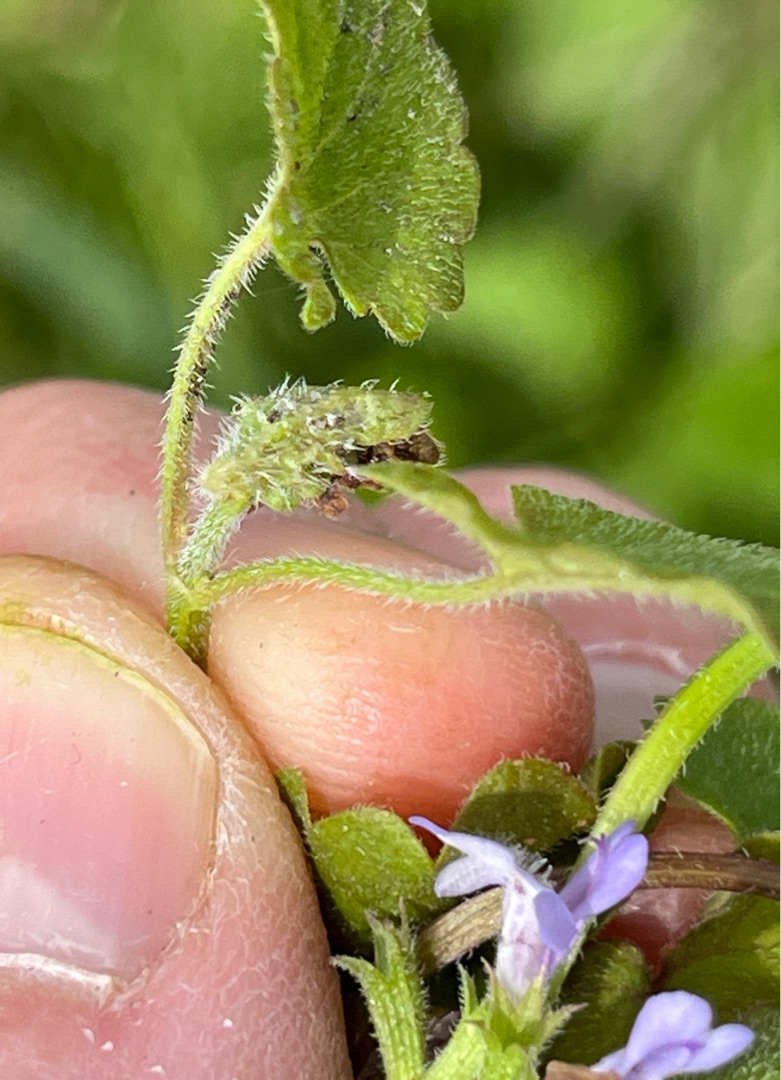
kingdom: Animalia
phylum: Arthropoda
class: Insecta
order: Diptera
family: Cecidomyiidae
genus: Dasineura
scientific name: Dasineura glechomae
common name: Korsknapskudgalmyg
